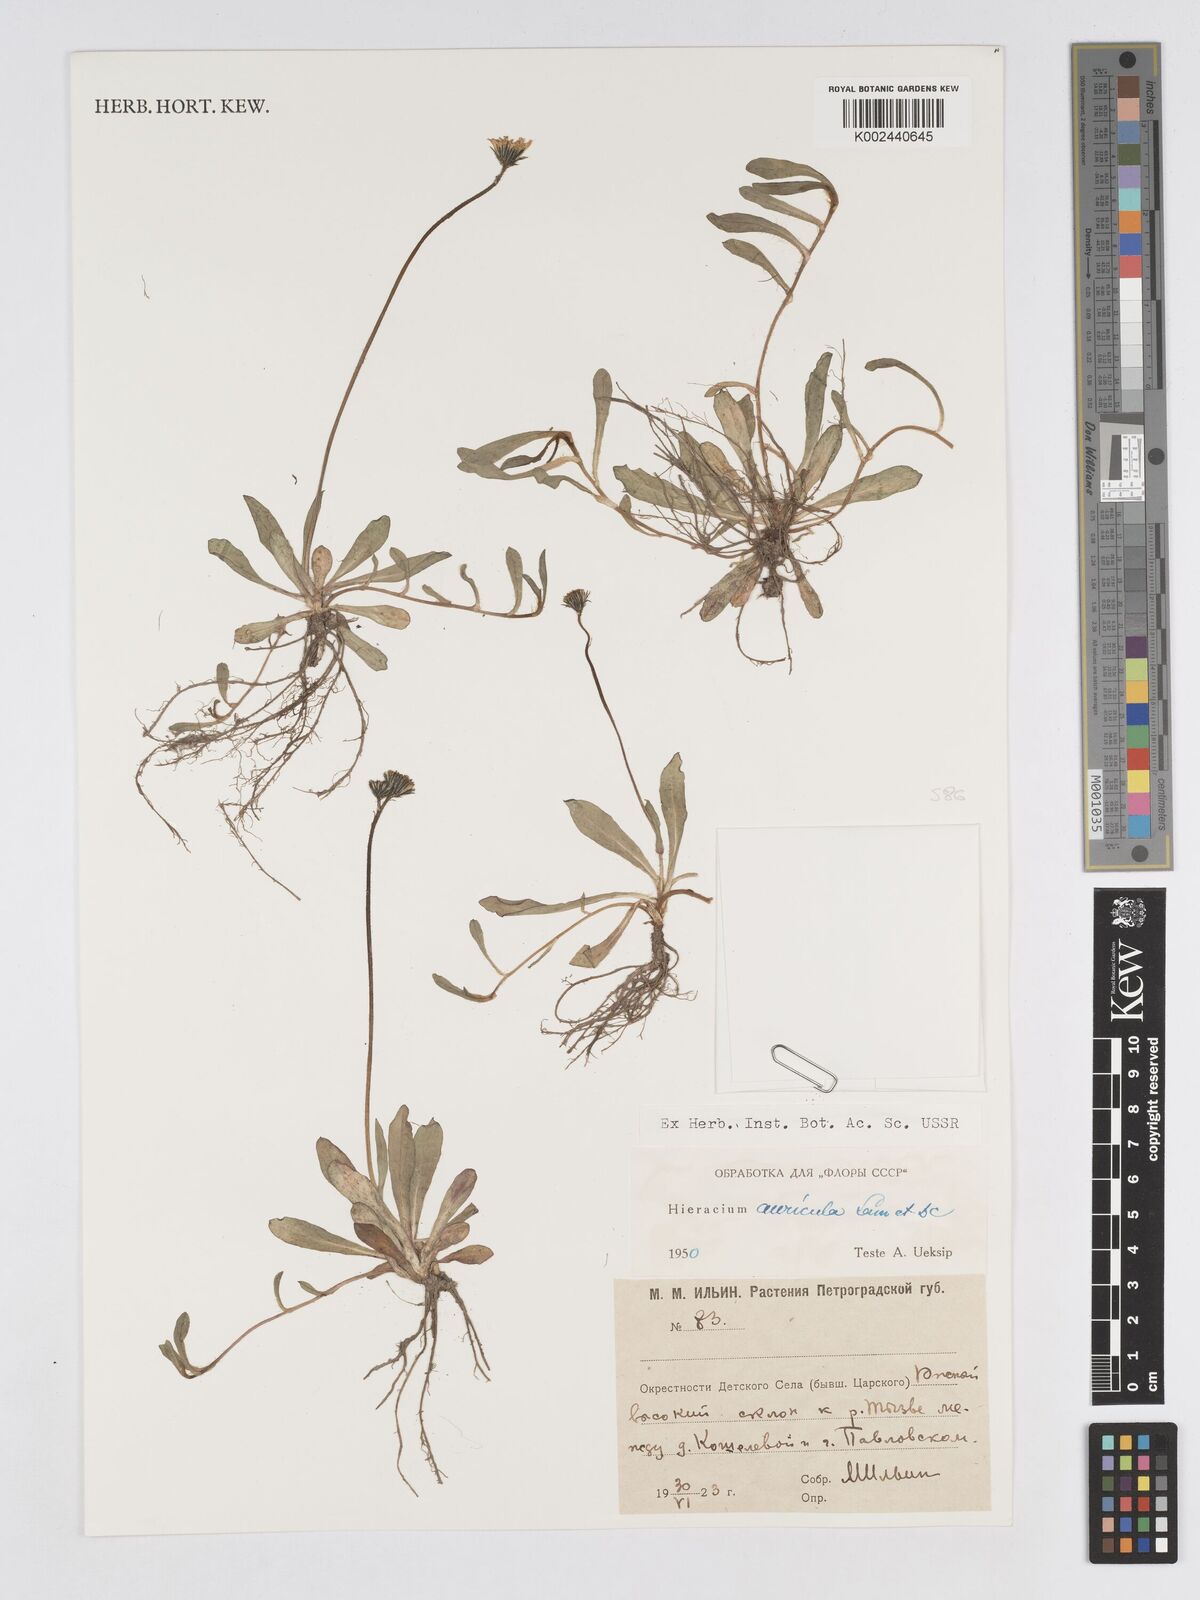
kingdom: Plantae
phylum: Tracheophyta
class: Magnoliopsida
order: Asterales
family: Asteraceae
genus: Pilosella
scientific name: Pilosella floribunda
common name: Glaucous hawkweed
